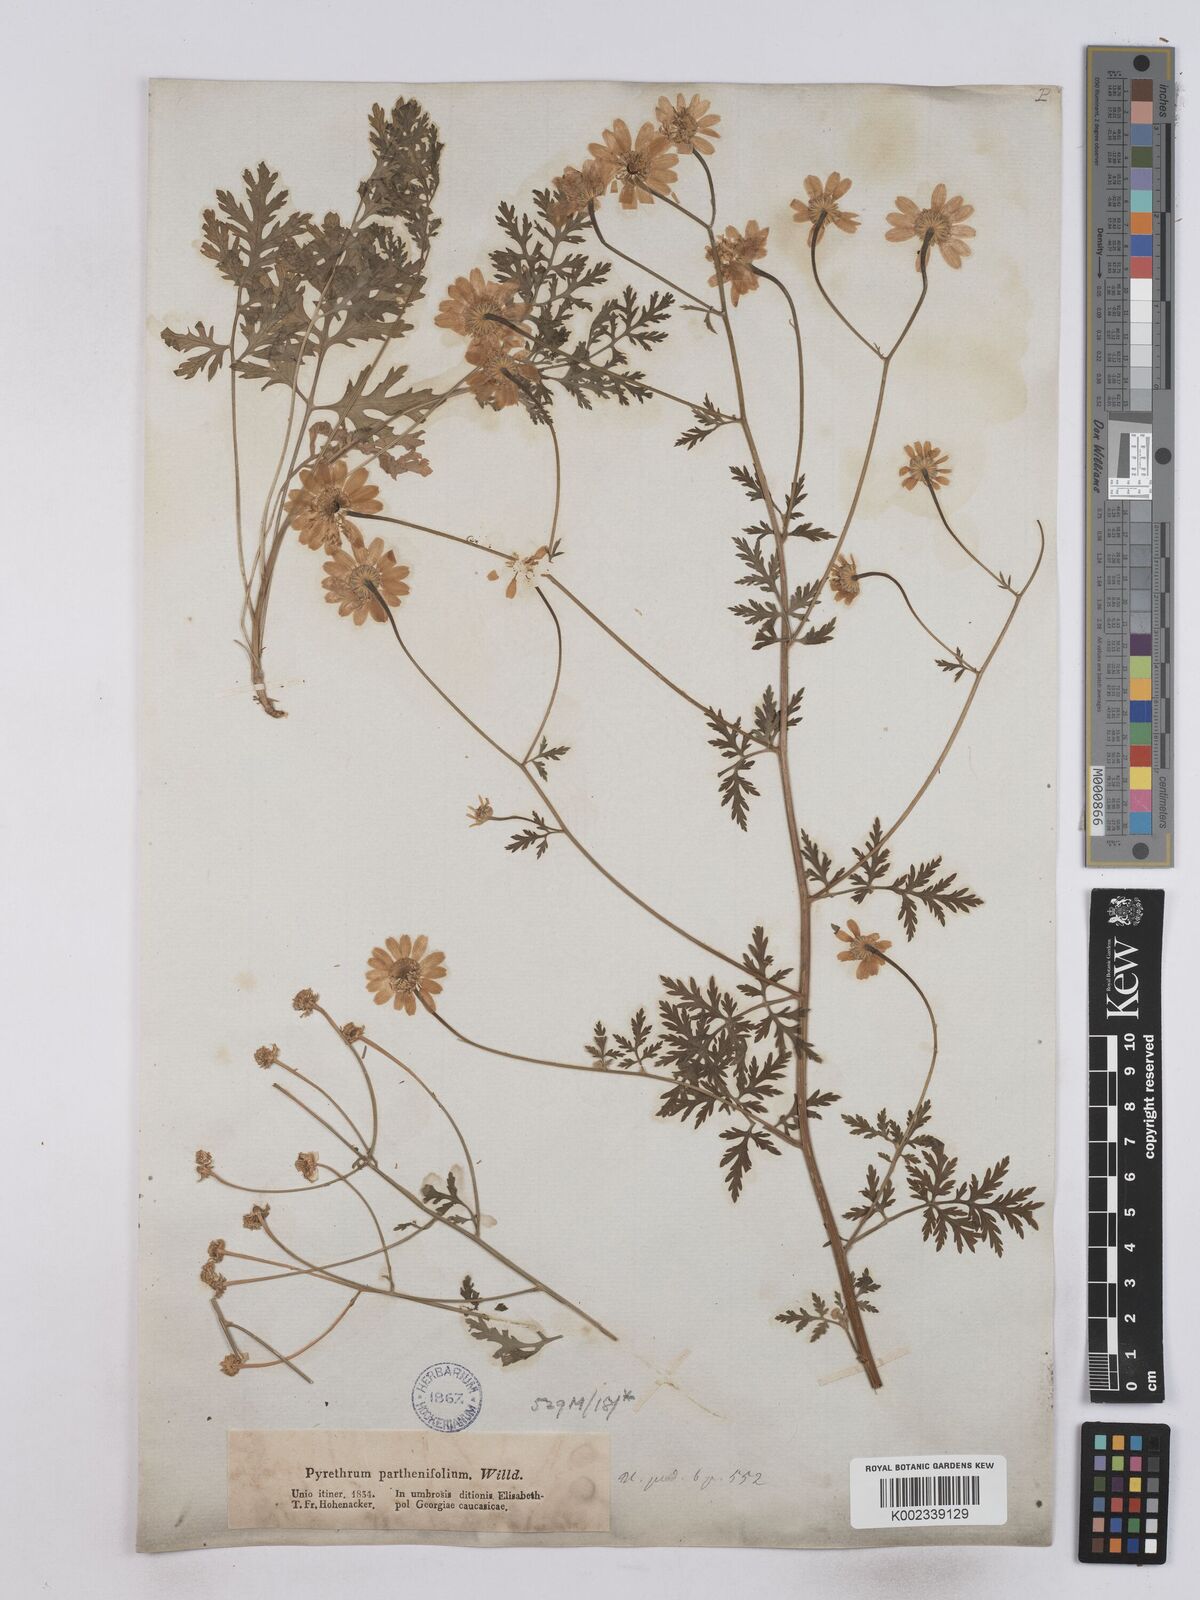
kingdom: Plantae
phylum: Tracheophyta
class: Magnoliopsida
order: Asterales
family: Asteraceae
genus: Tanacetum
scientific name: Tanacetum partheniifolium
